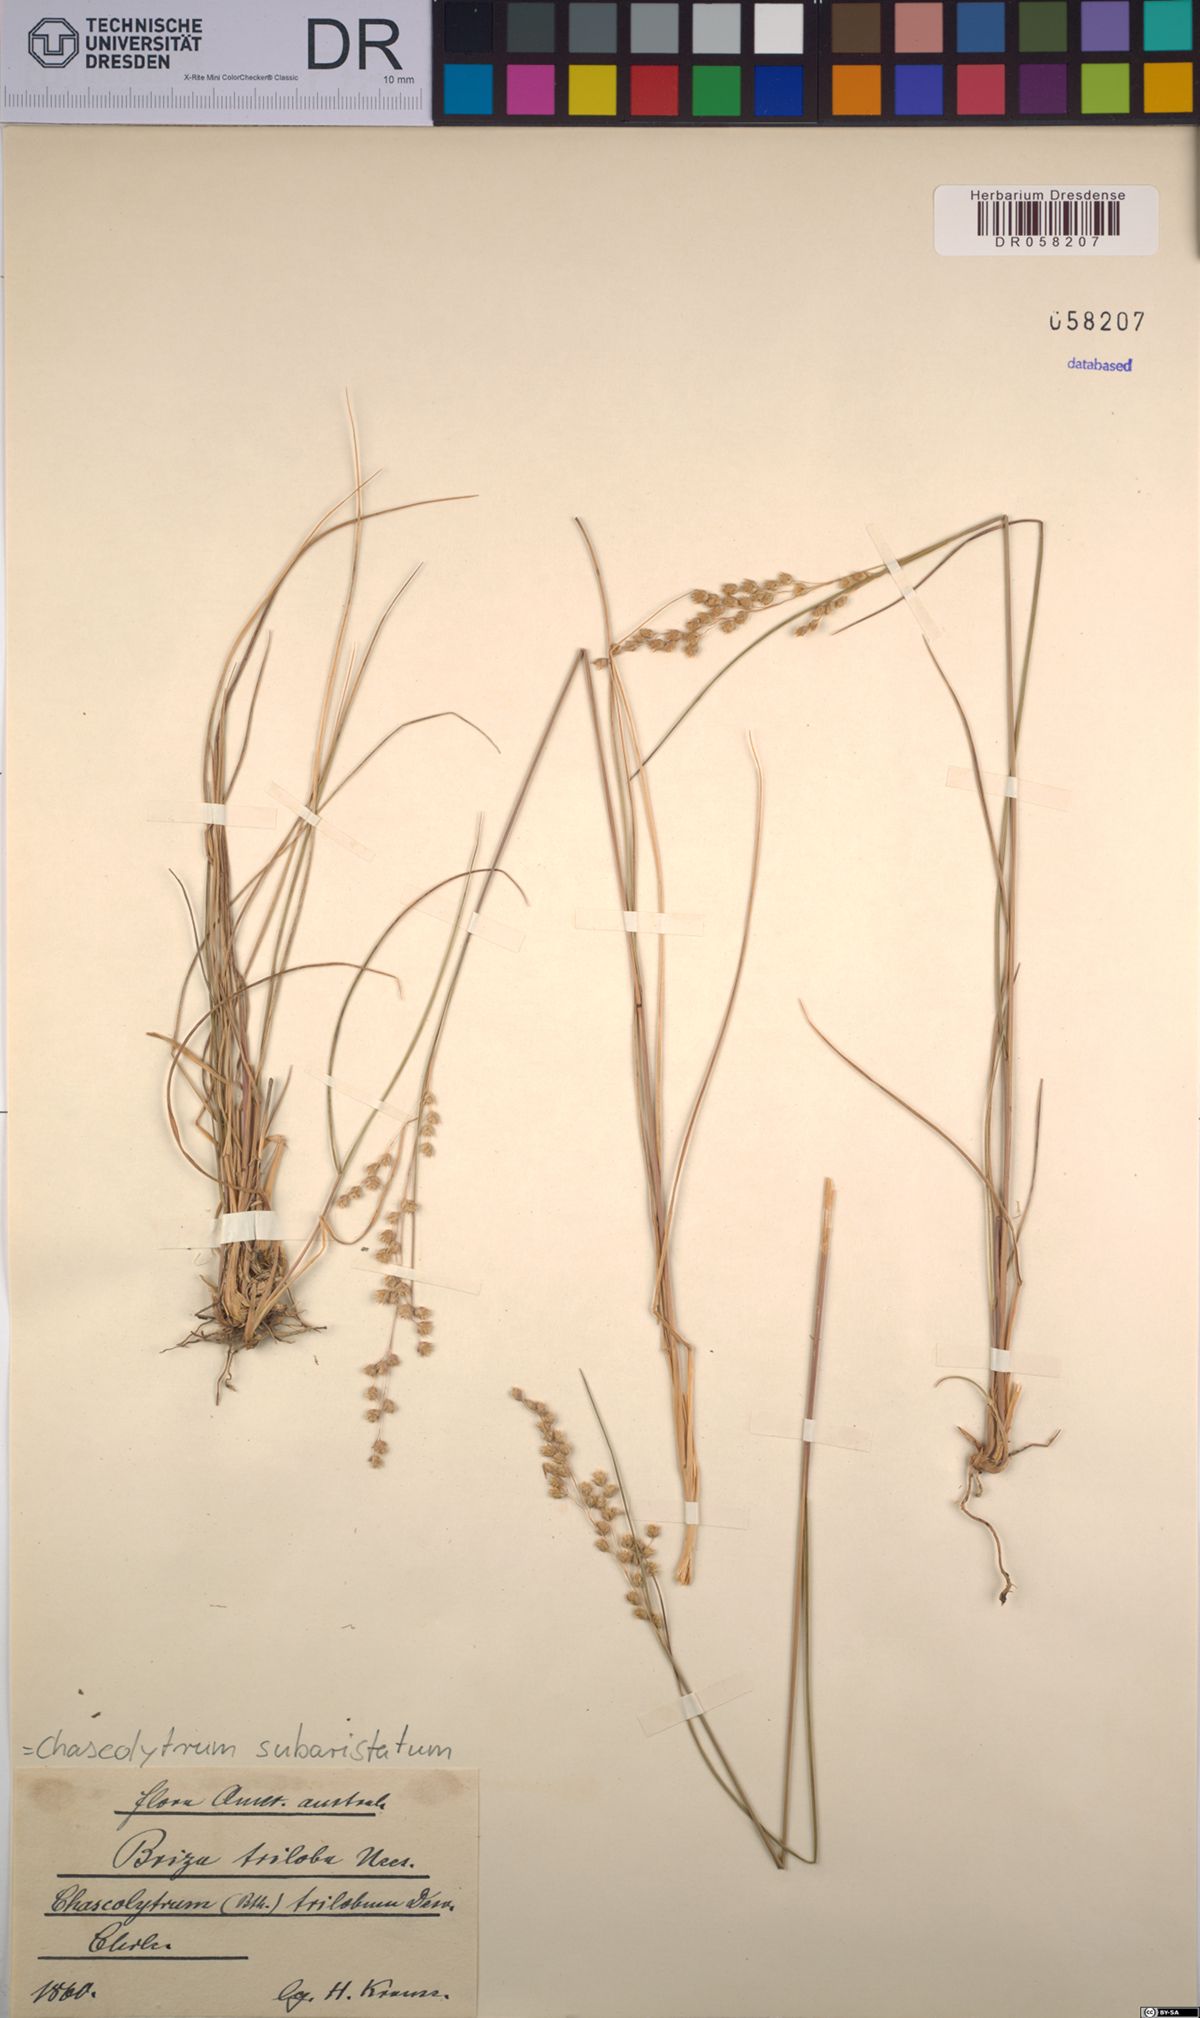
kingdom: Plantae
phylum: Tracheophyta
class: Liliopsida
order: Poales
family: Poaceae
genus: Chascolytrum
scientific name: Chascolytrum subaristatum
